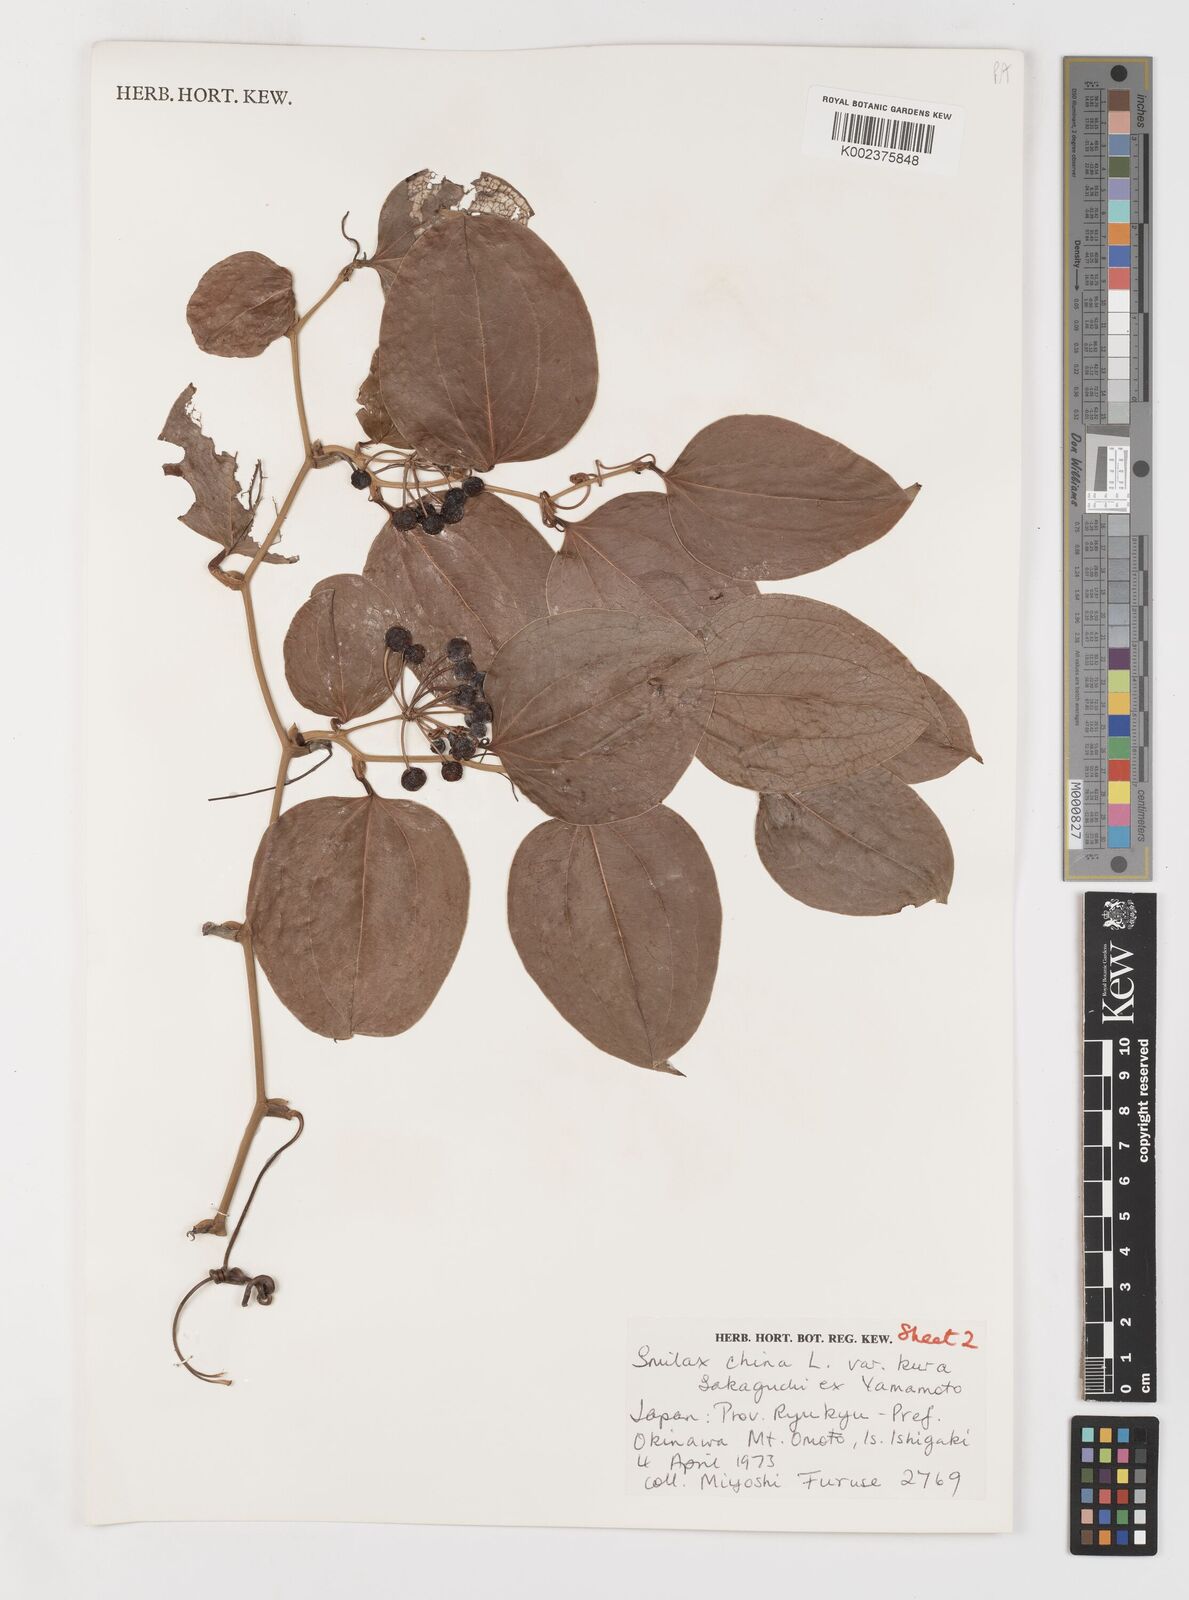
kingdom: Plantae
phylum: Tracheophyta
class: Liliopsida
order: Liliales
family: Smilacaceae
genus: Smilax
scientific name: Smilax china
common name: Chinaroot
